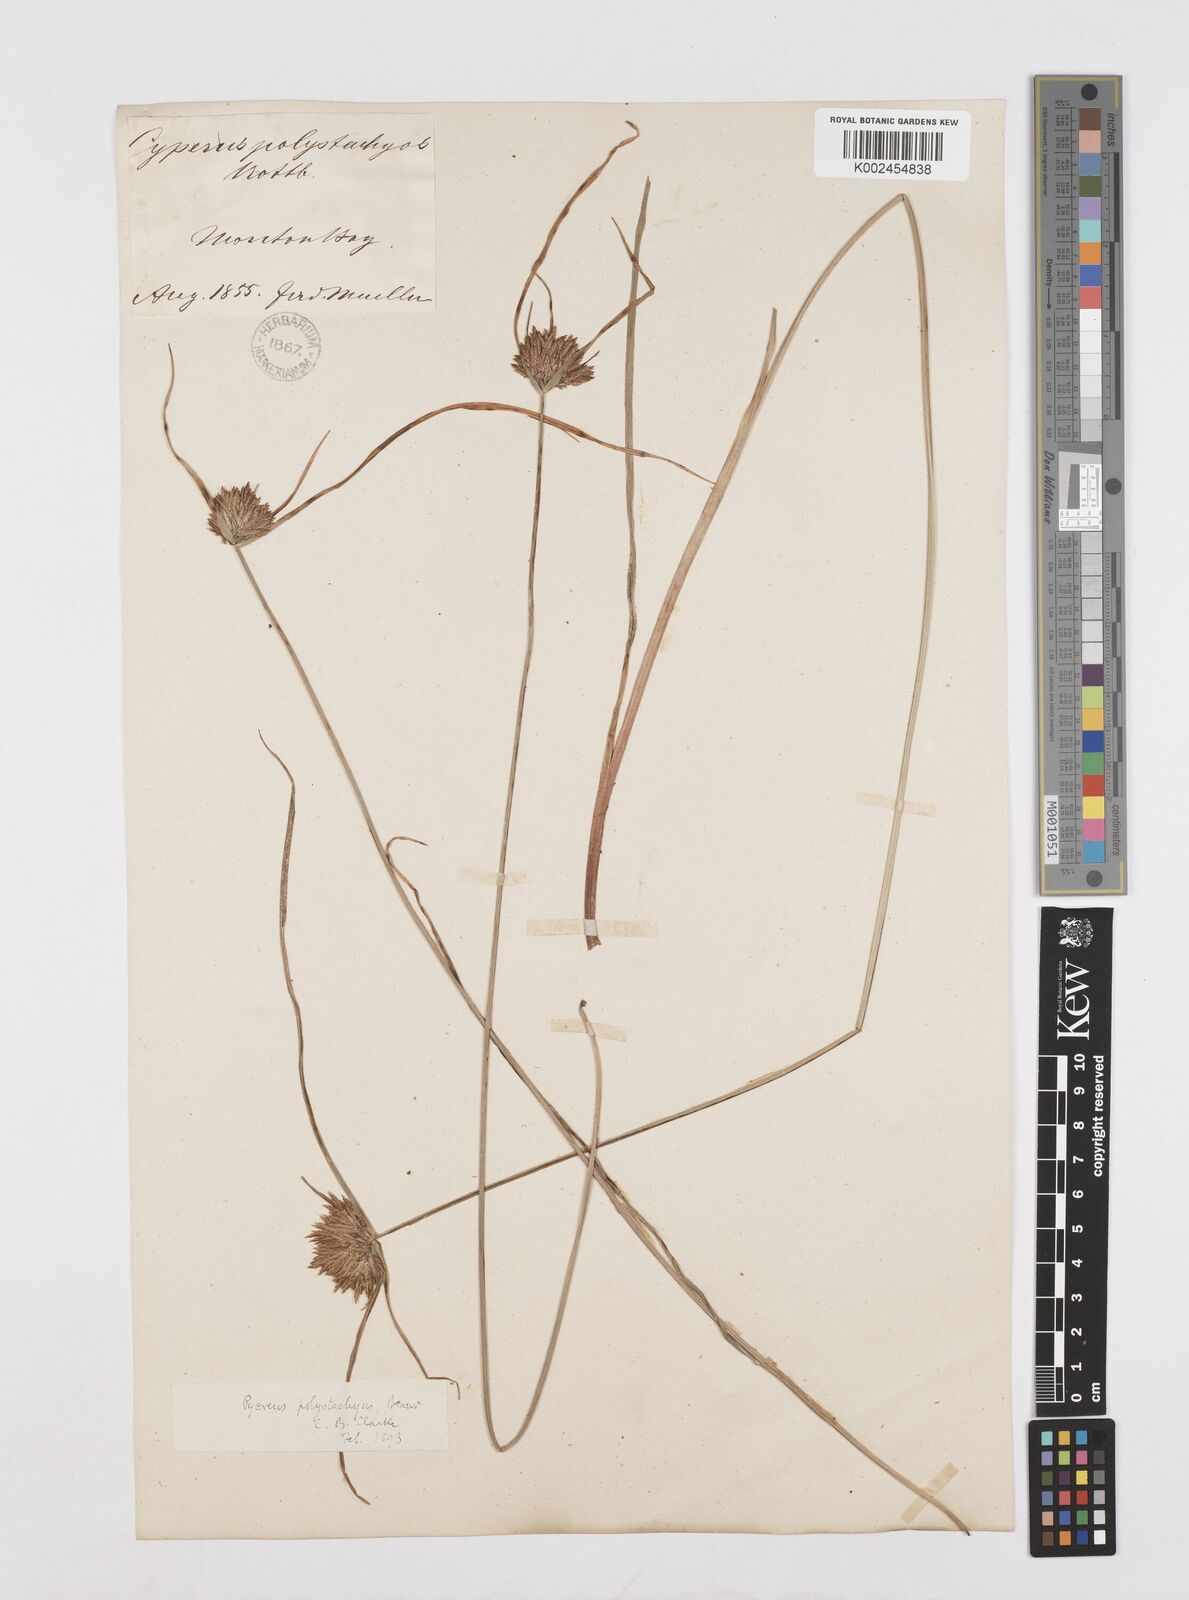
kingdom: Plantae
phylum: Tracheophyta
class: Liliopsida
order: Poales
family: Cyperaceae
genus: Cyperus
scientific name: Cyperus polystachyos
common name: Bunchy flat sedge
